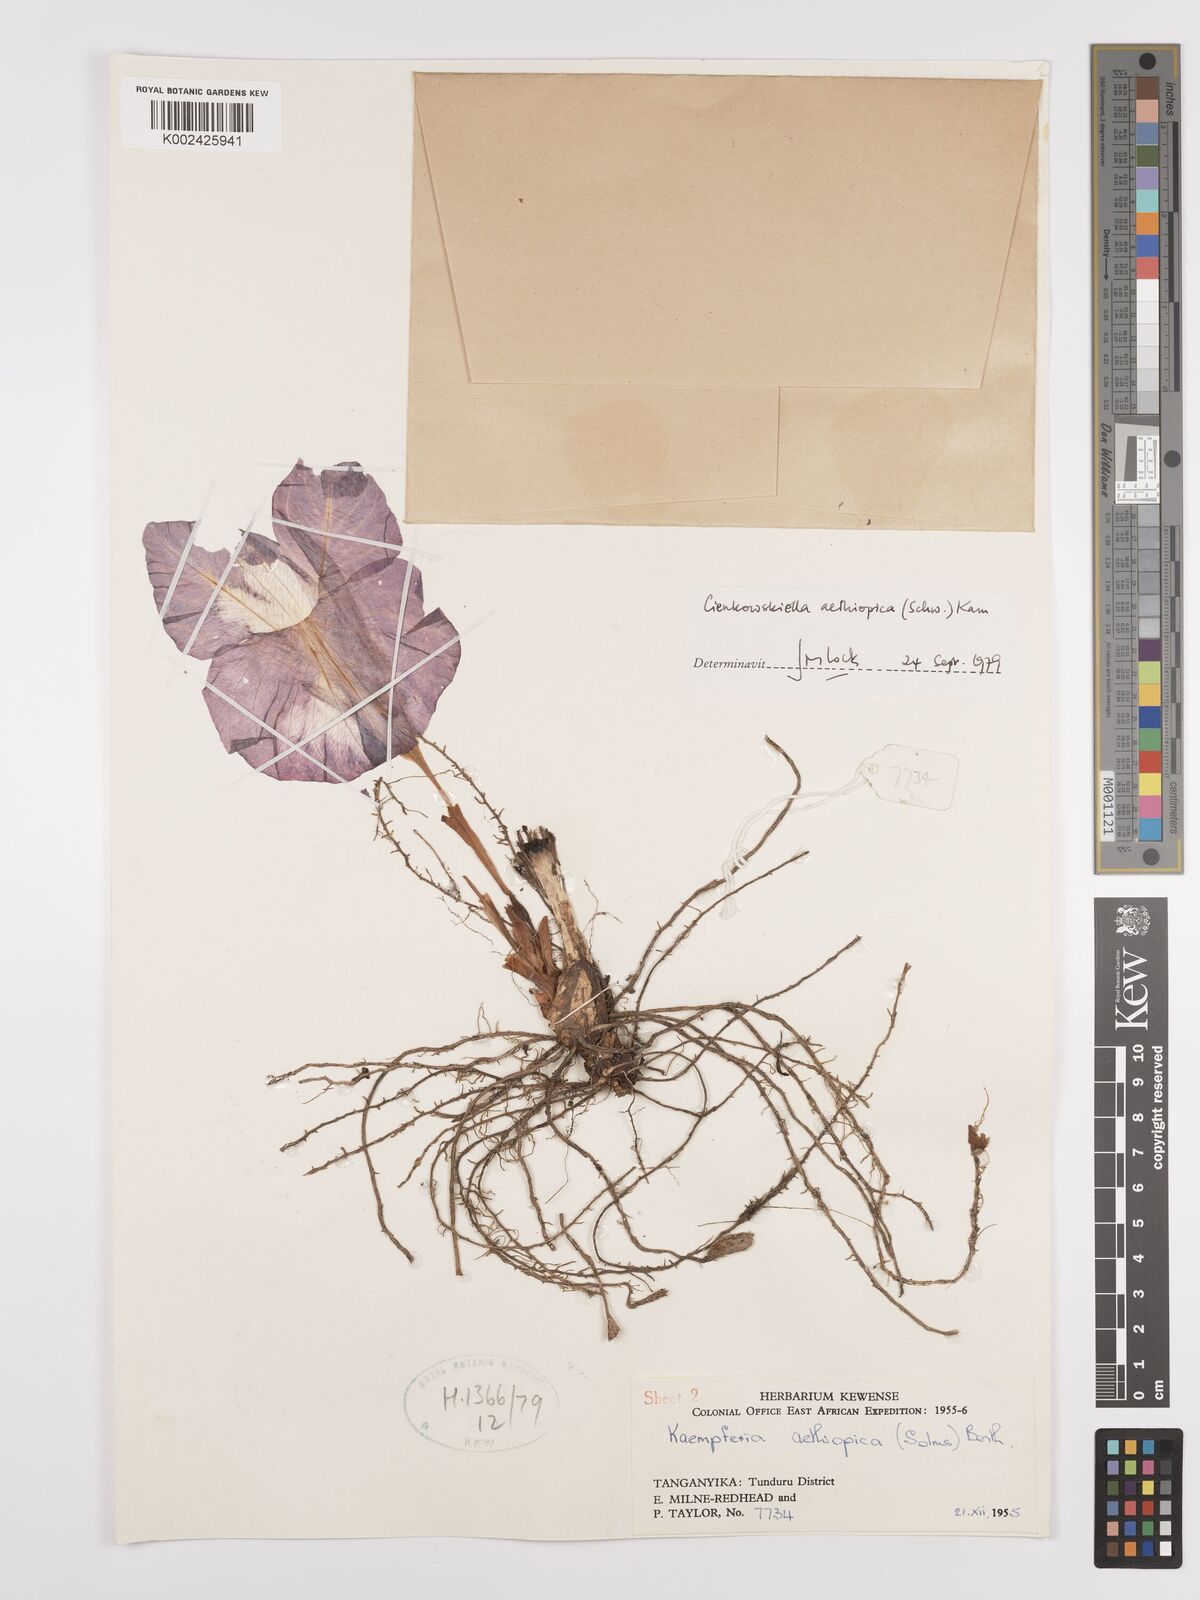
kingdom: Plantae
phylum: Tracheophyta
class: Liliopsida
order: Zingiberales
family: Zingiberaceae
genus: Siphonochilus
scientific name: Siphonochilus aethiopicus
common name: African-ginger
